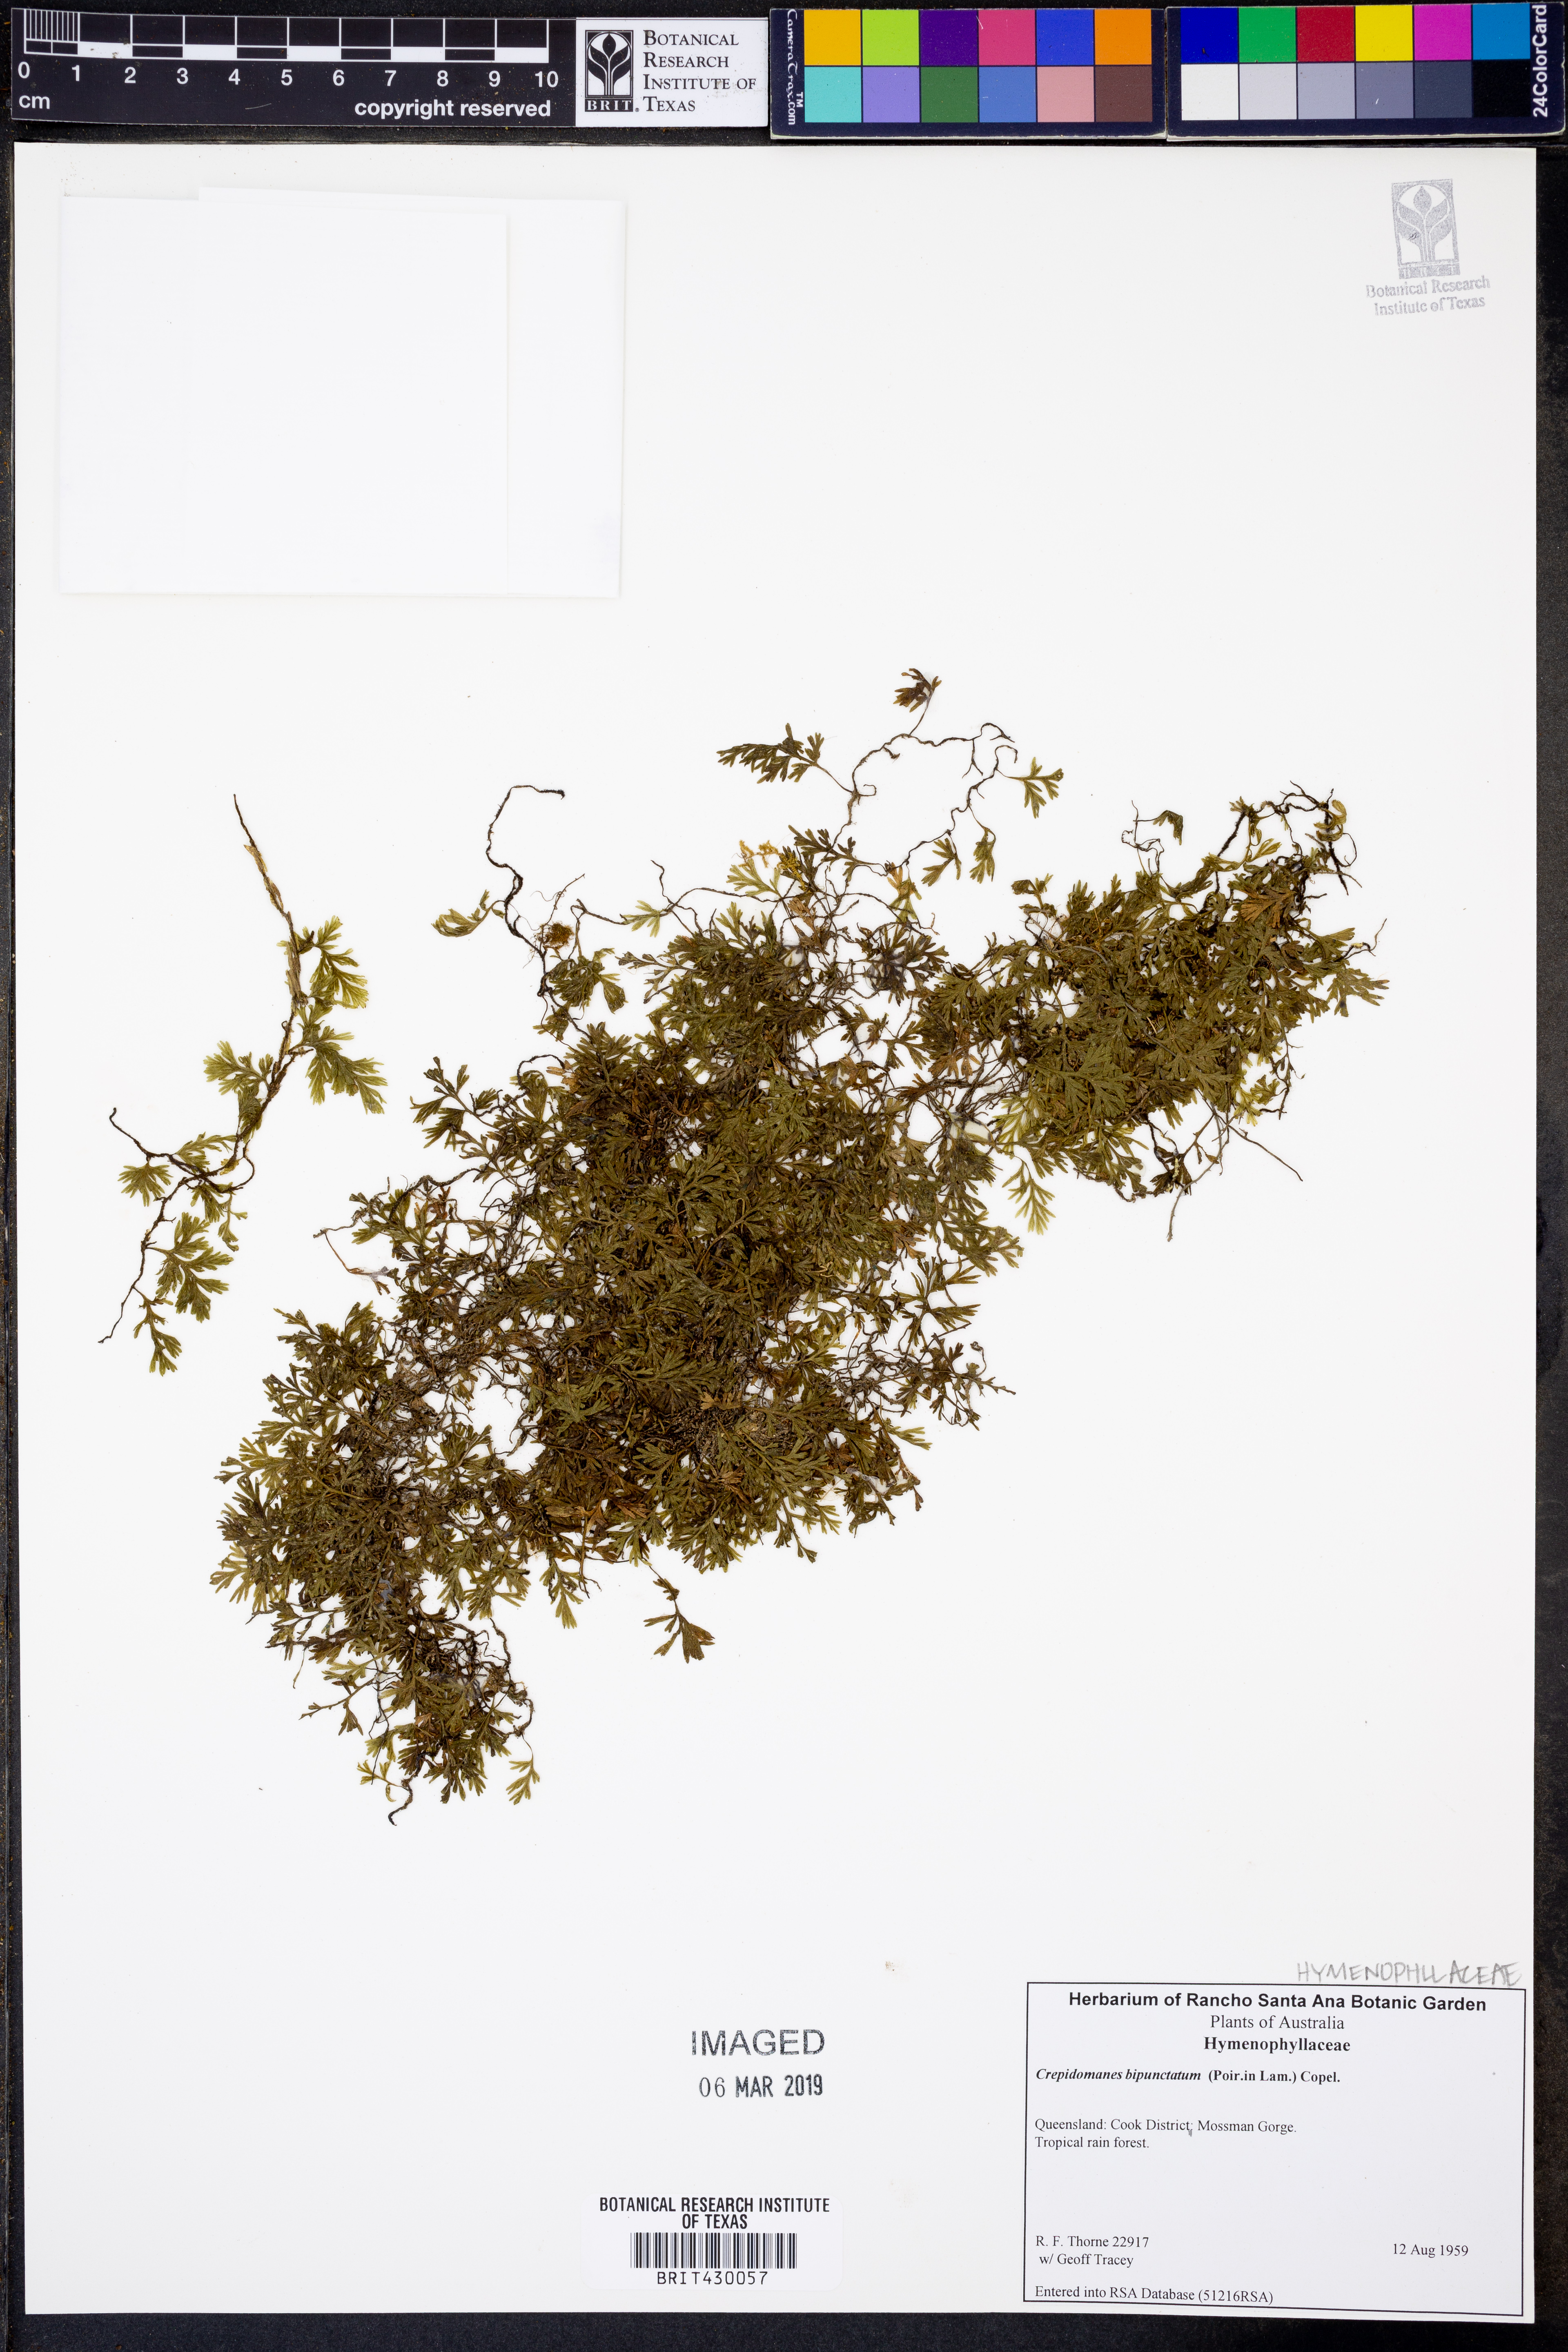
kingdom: Plantae
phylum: Tracheophyta
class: Polypodiopsida
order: Hymenophyllales
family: Hymenophyllaceae
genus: Crepidomanes
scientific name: Crepidomanes bipunctatum
